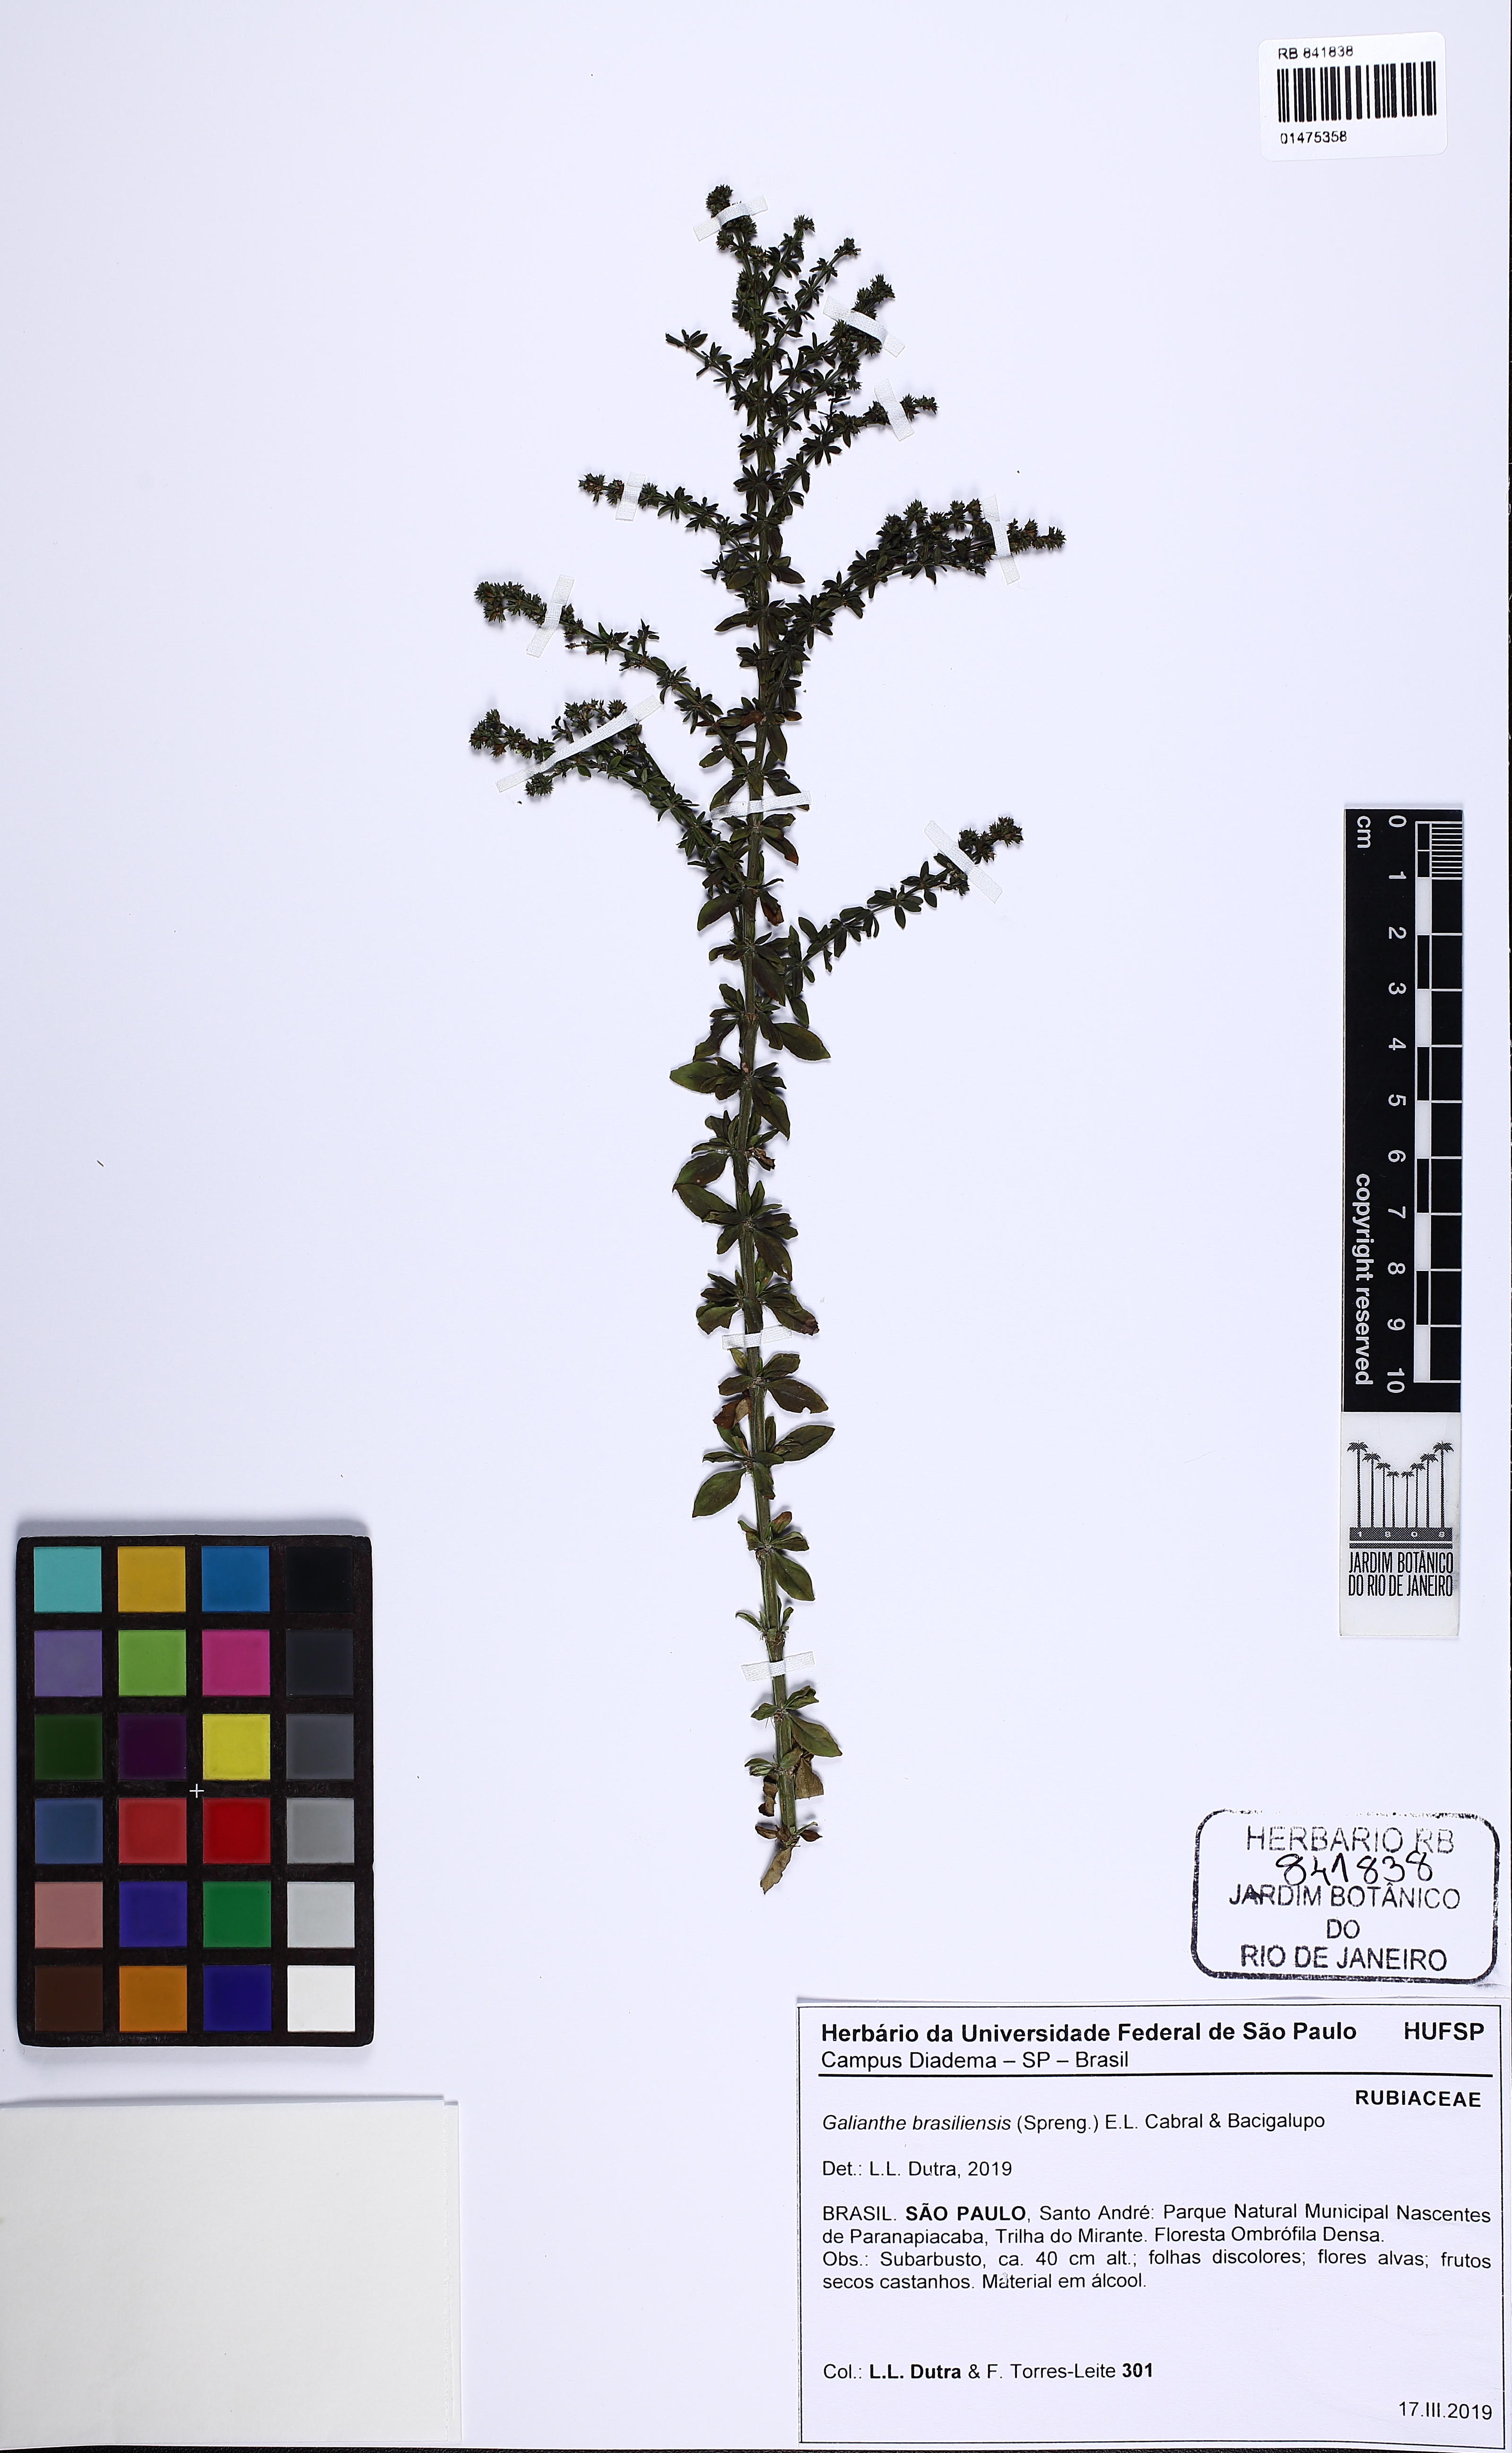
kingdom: Plantae
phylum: Tracheophyta
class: Magnoliopsida
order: Gentianales
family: Rubiaceae
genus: Galianthe
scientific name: Galianthe brasiliensis
